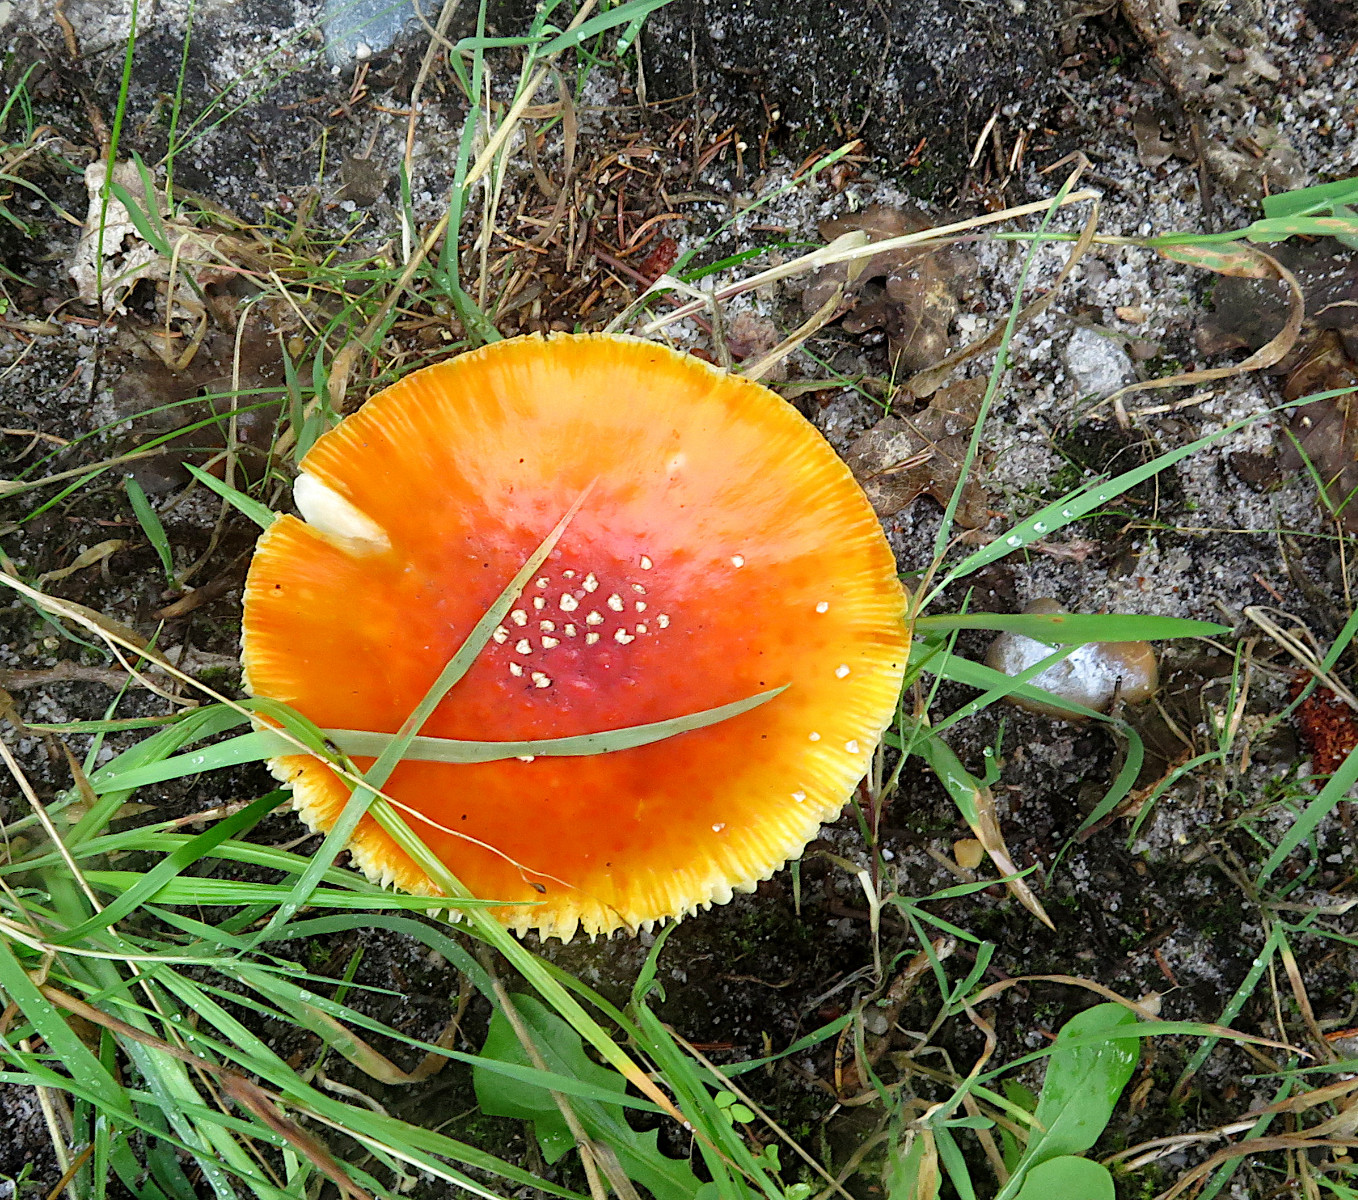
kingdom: Fungi
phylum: Basidiomycota
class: Agaricomycetes
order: Agaricales
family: Amanitaceae
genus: Amanita
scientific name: Amanita muscaria
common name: rød fluesvamp
